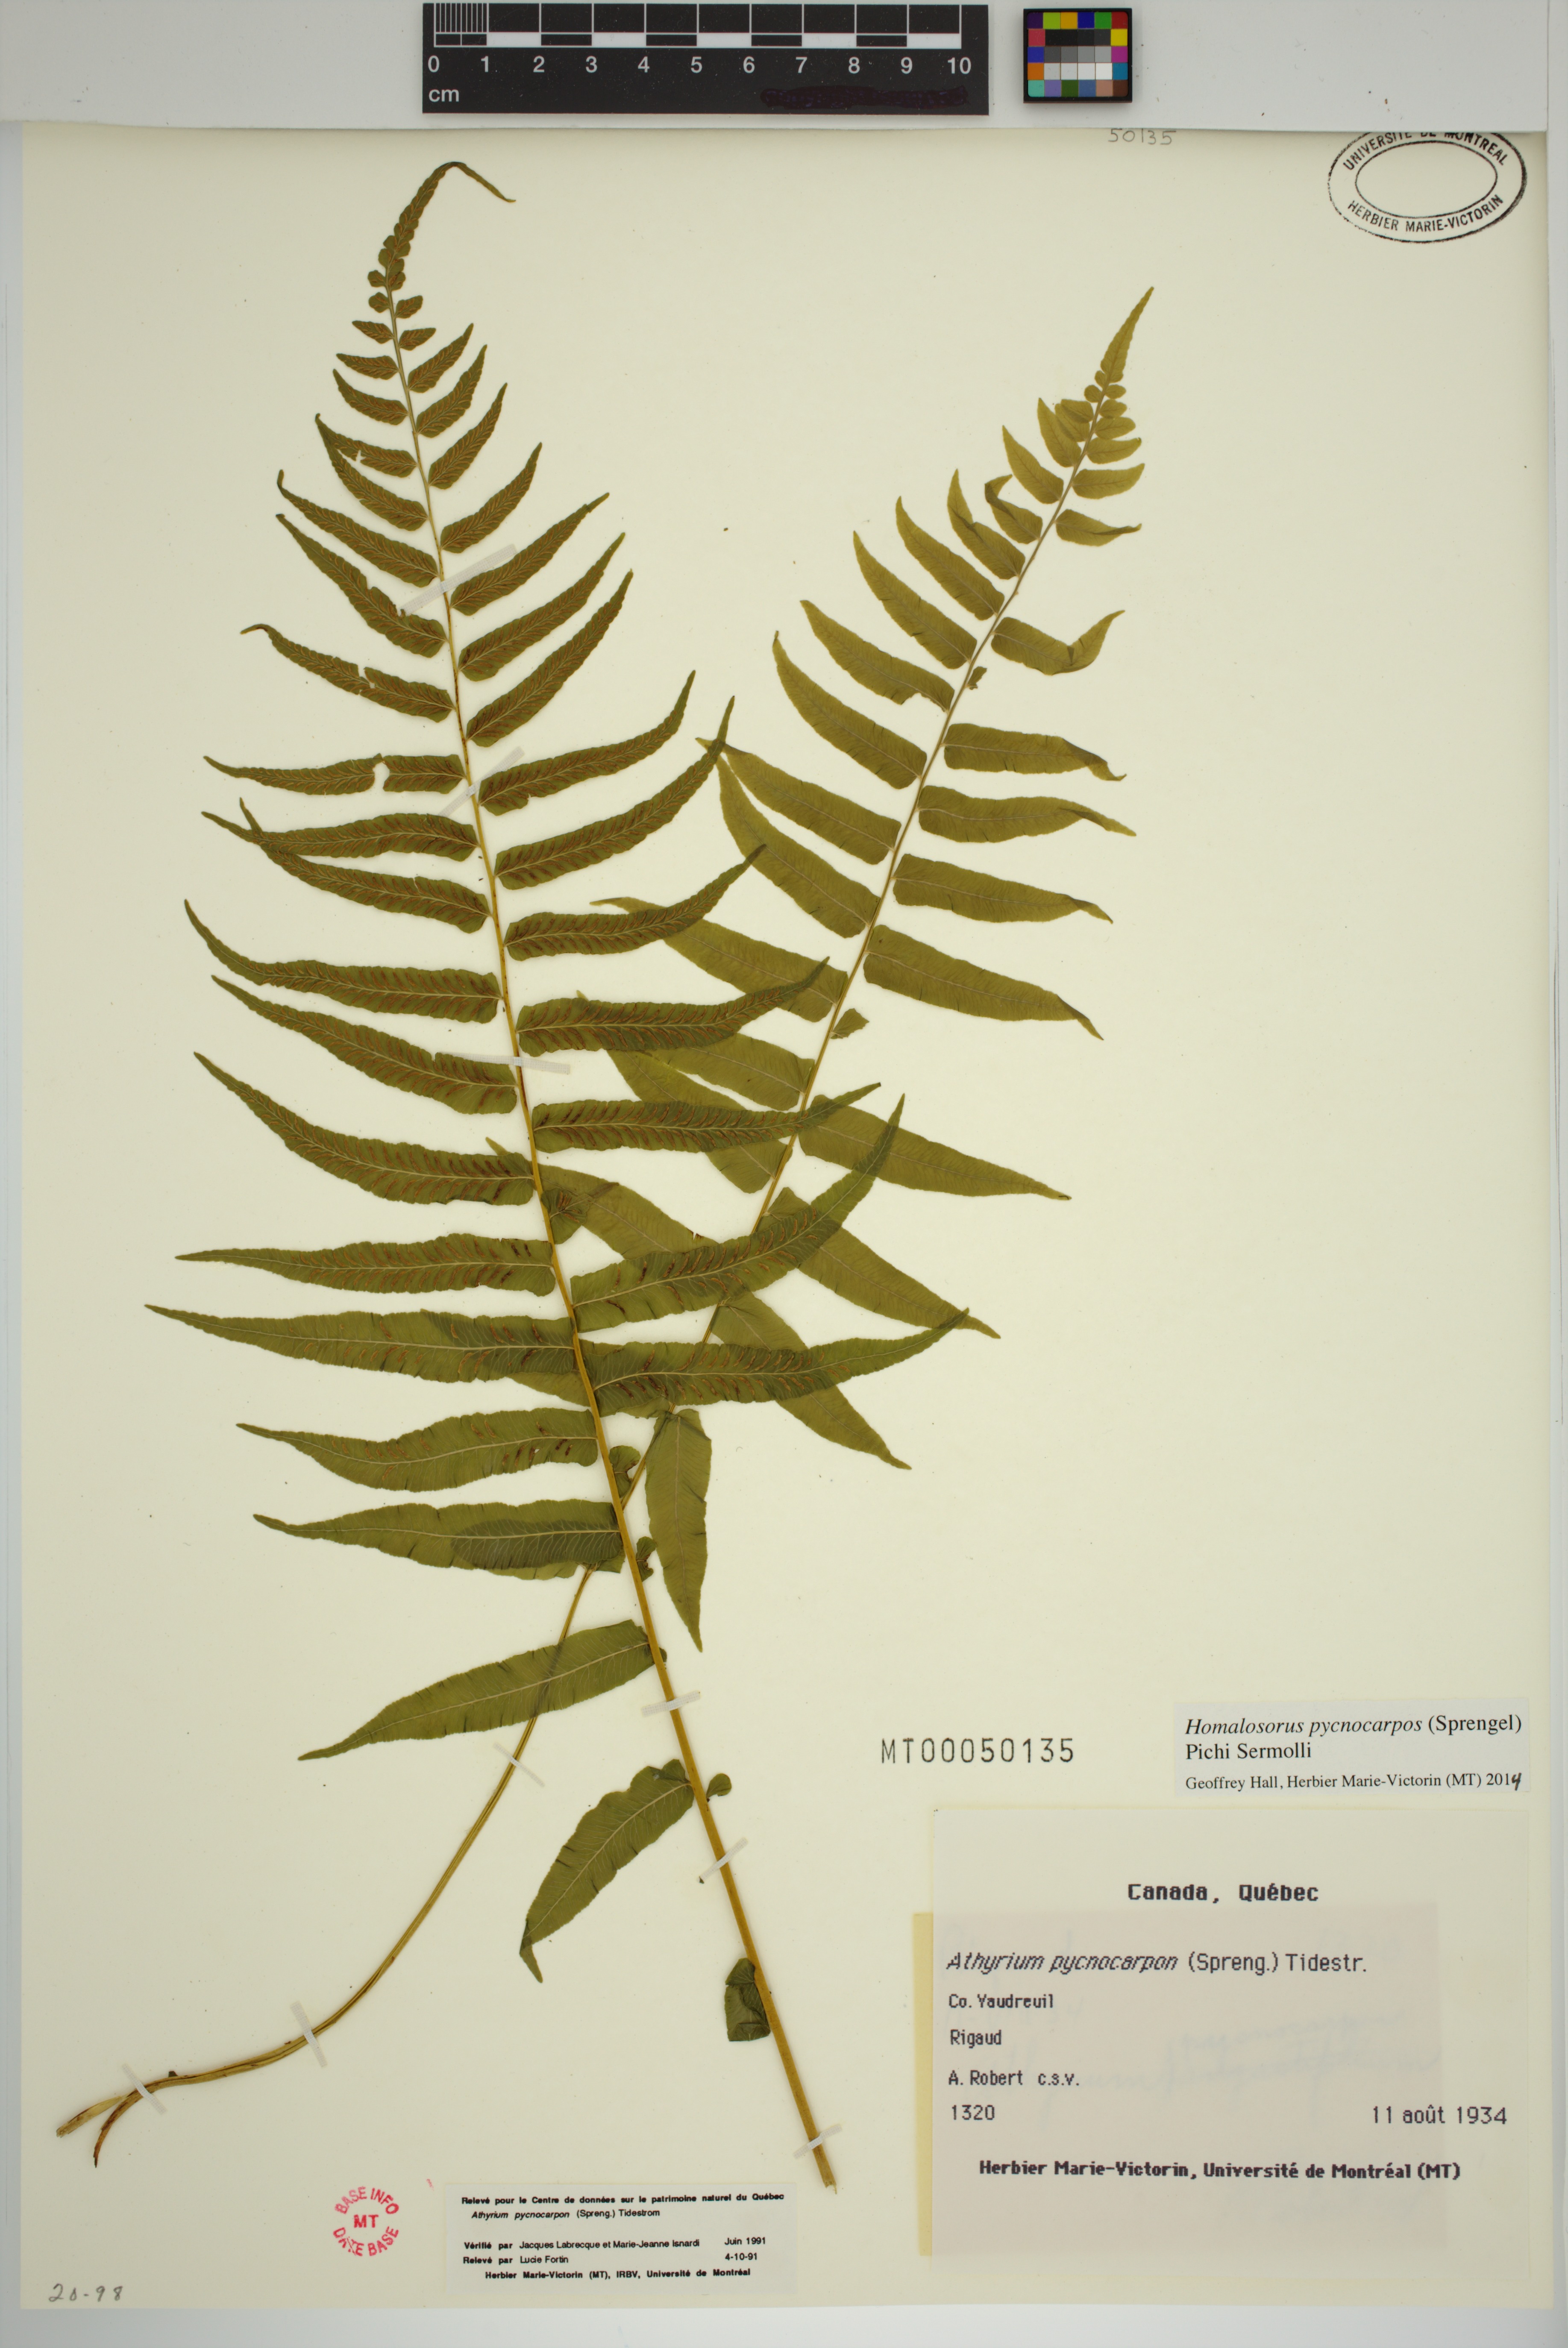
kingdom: Plantae
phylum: Tracheophyta
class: Polypodiopsida
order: Polypodiales
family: Diplaziopsidaceae
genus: Homalosorus
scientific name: Homalosorus pycnocarpos
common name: Glade fern
